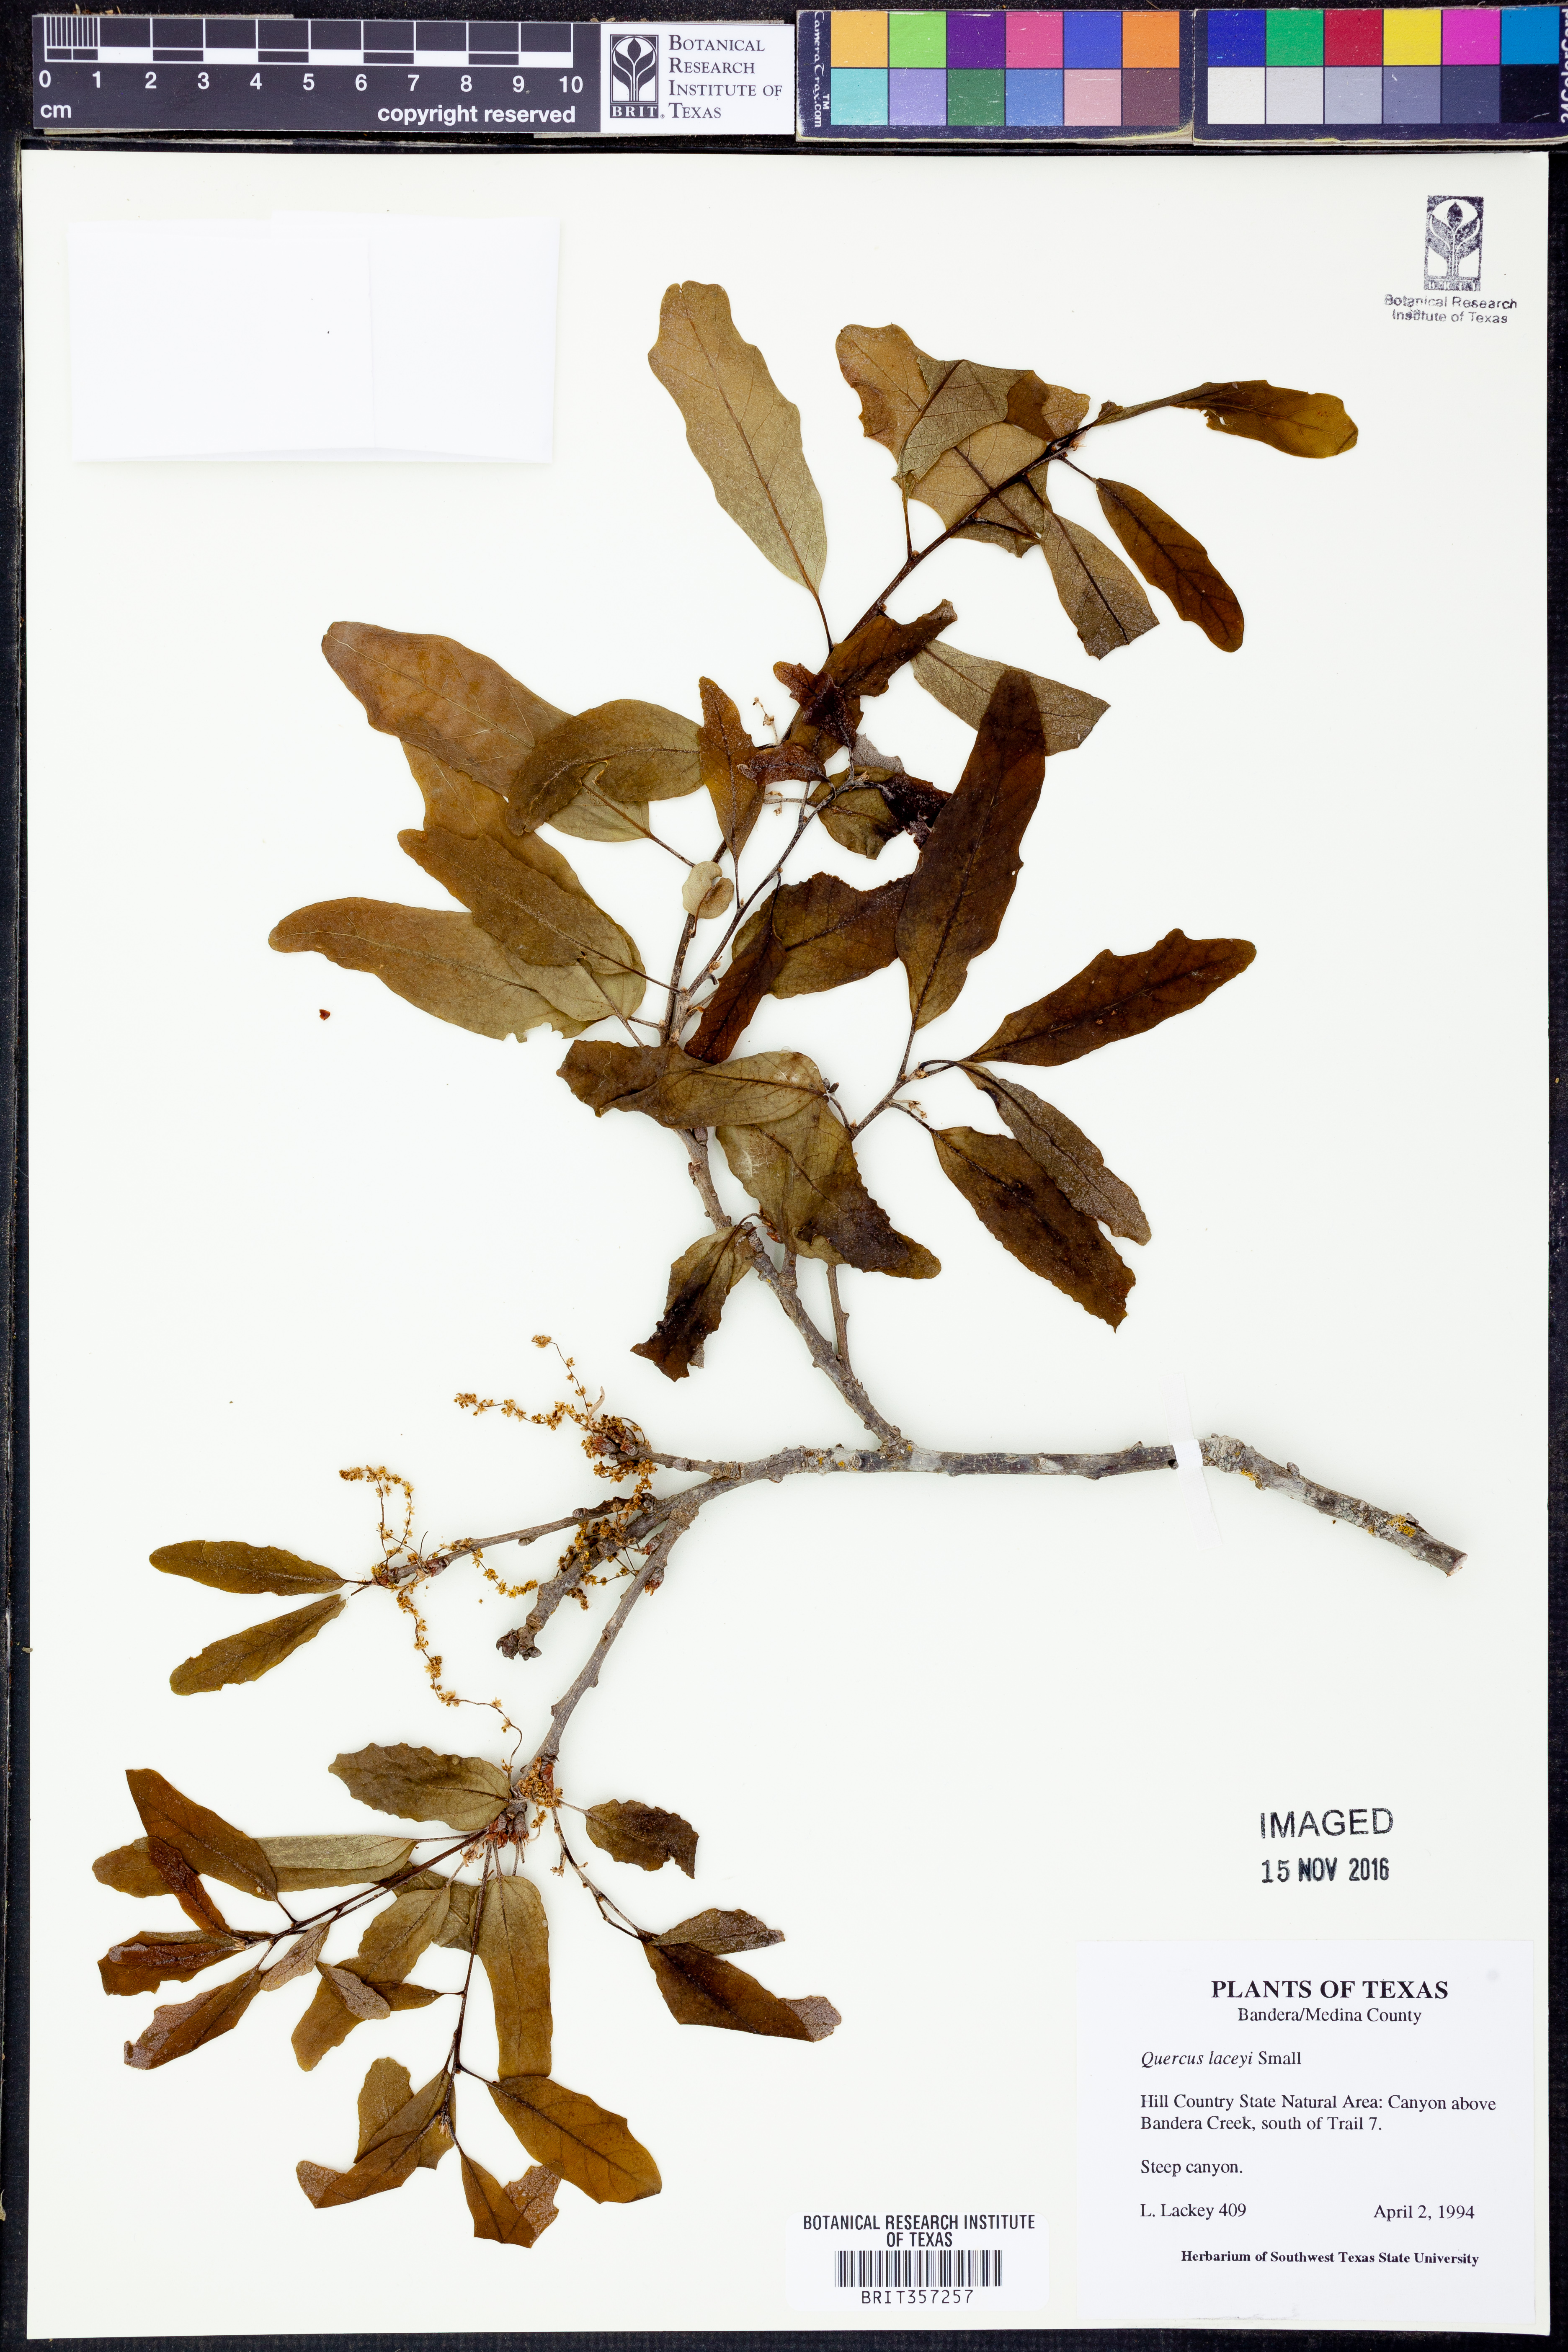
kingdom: Plantae
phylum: Tracheophyta
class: Magnoliopsida
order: Fagales
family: Fagaceae
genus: Quercus
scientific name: Quercus laceyi
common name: Lacey oak
